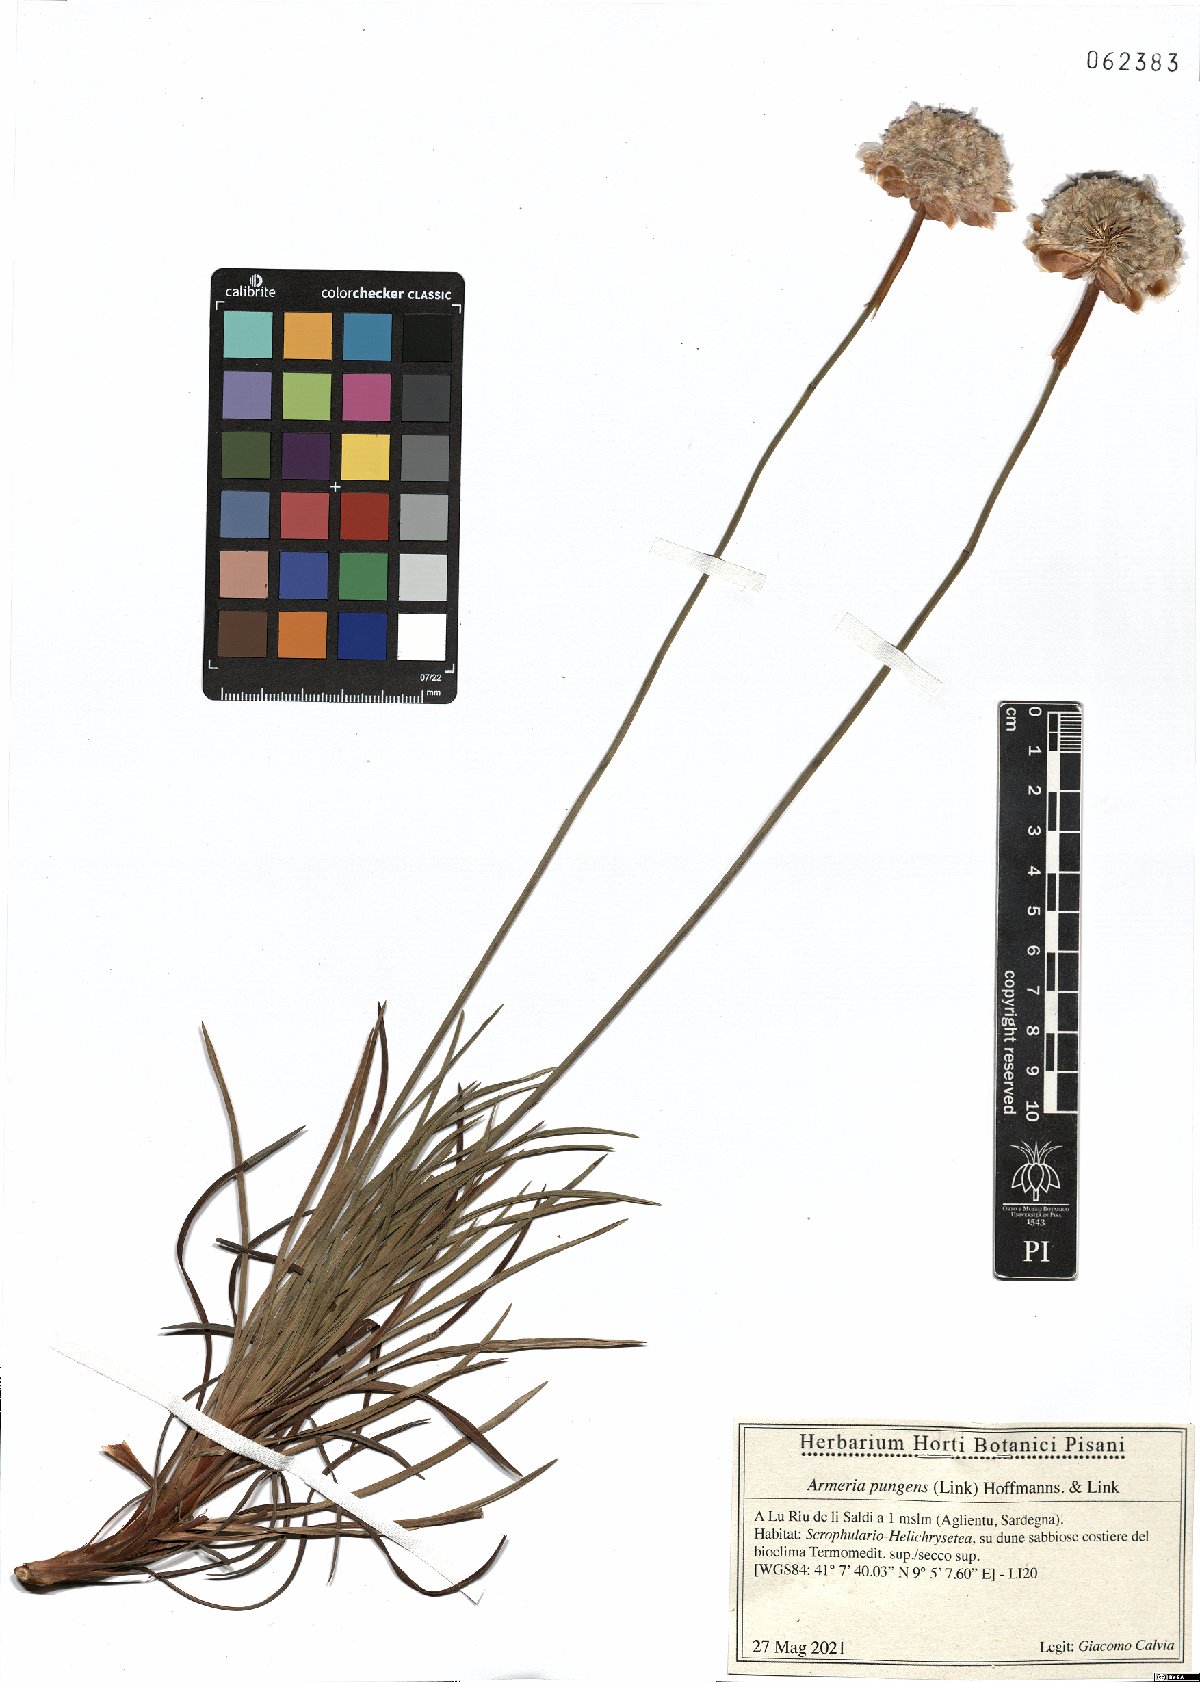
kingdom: Plantae
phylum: Tracheophyta
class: Magnoliopsida
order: Caryophyllales
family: Plumbaginaceae
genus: Armeria
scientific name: Armeria pungens
